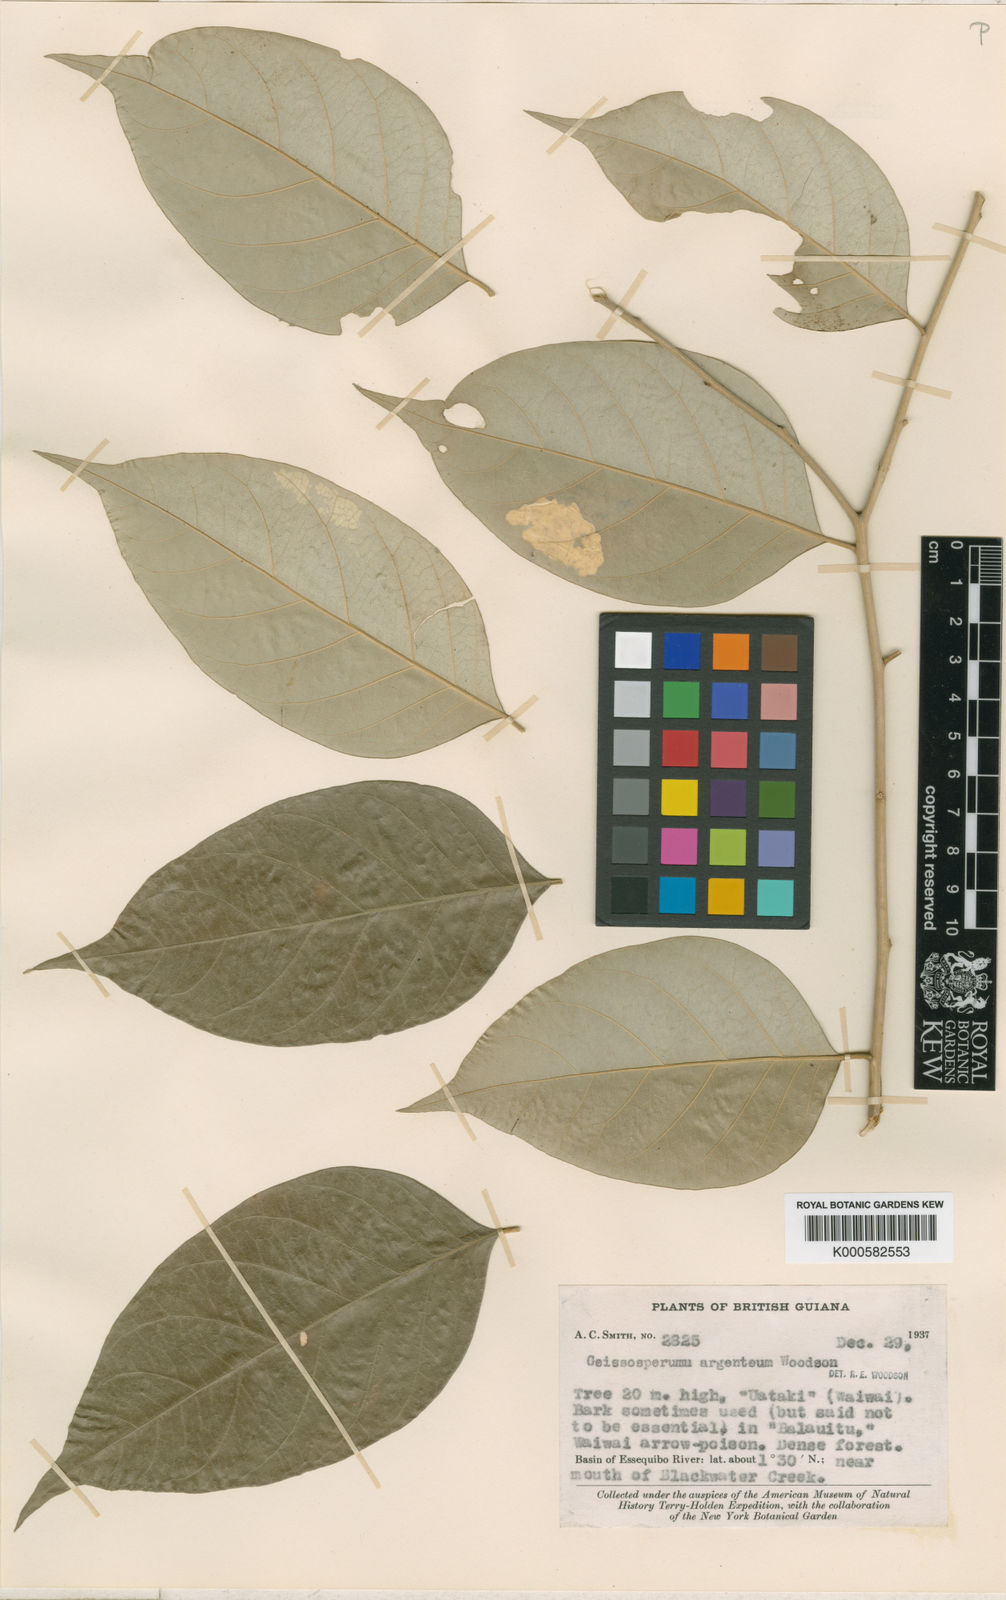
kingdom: Plantae
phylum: Tracheophyta
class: Magnoliopsida
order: Gentianales
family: Apocynaceae
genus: Geissospermum
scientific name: Geissospermum argenteum
